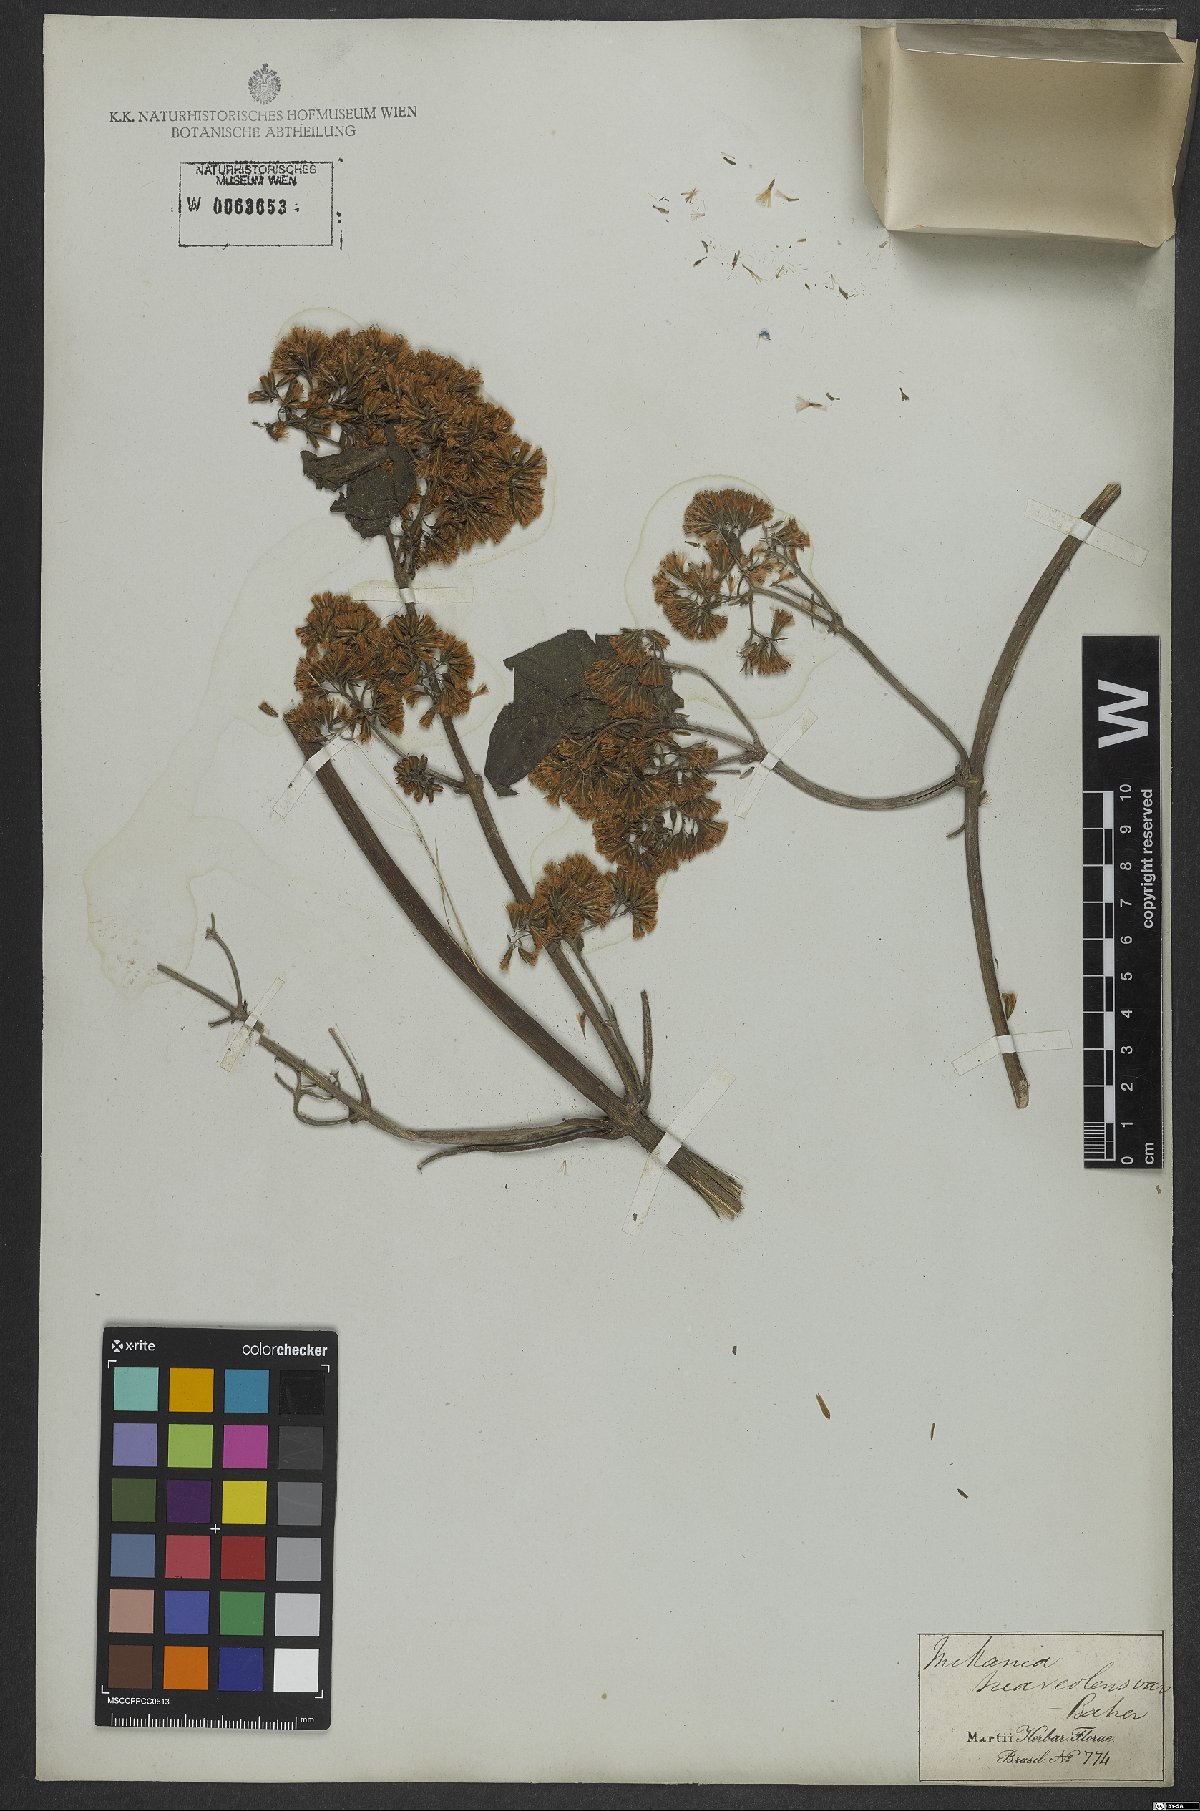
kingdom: Plantae
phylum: Tracheophyta
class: Magnoliopsida
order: Asterales
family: Asteraceae
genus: Mikania
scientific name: Mikania cordifolia
